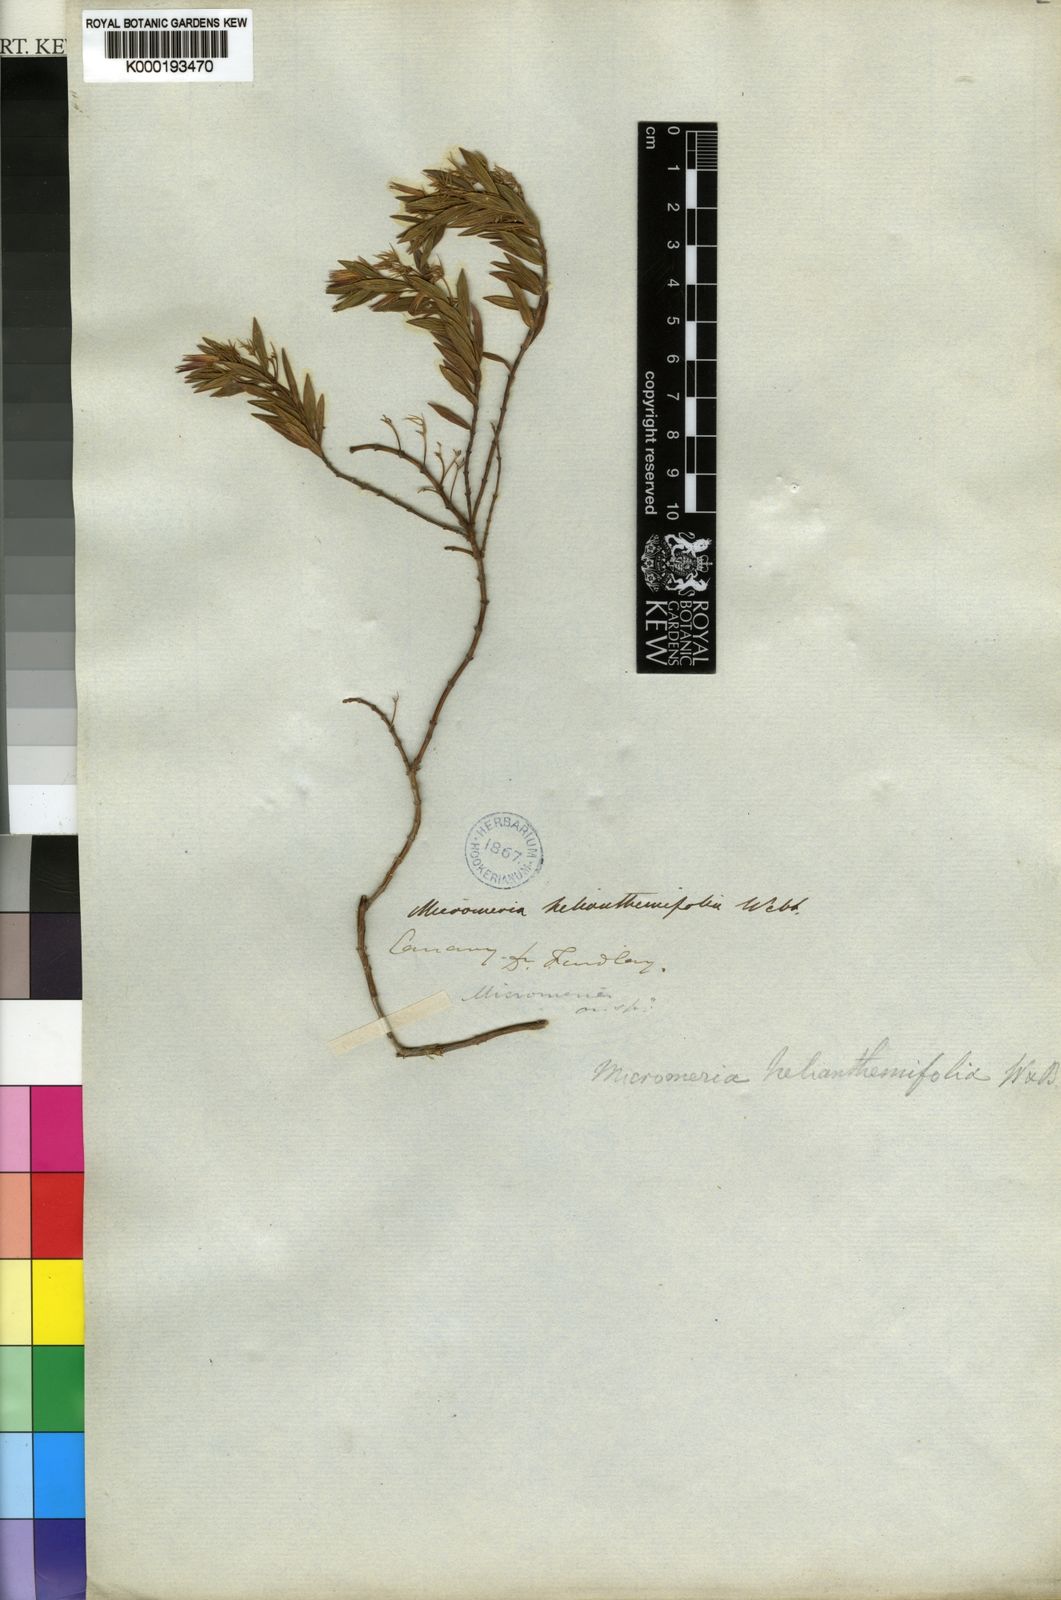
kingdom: Plantae
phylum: Tracheophyta
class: Magnoliopsida
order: Lamiales
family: Lamiaceae
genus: Micromeria
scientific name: Micromeria helianthemifolia
